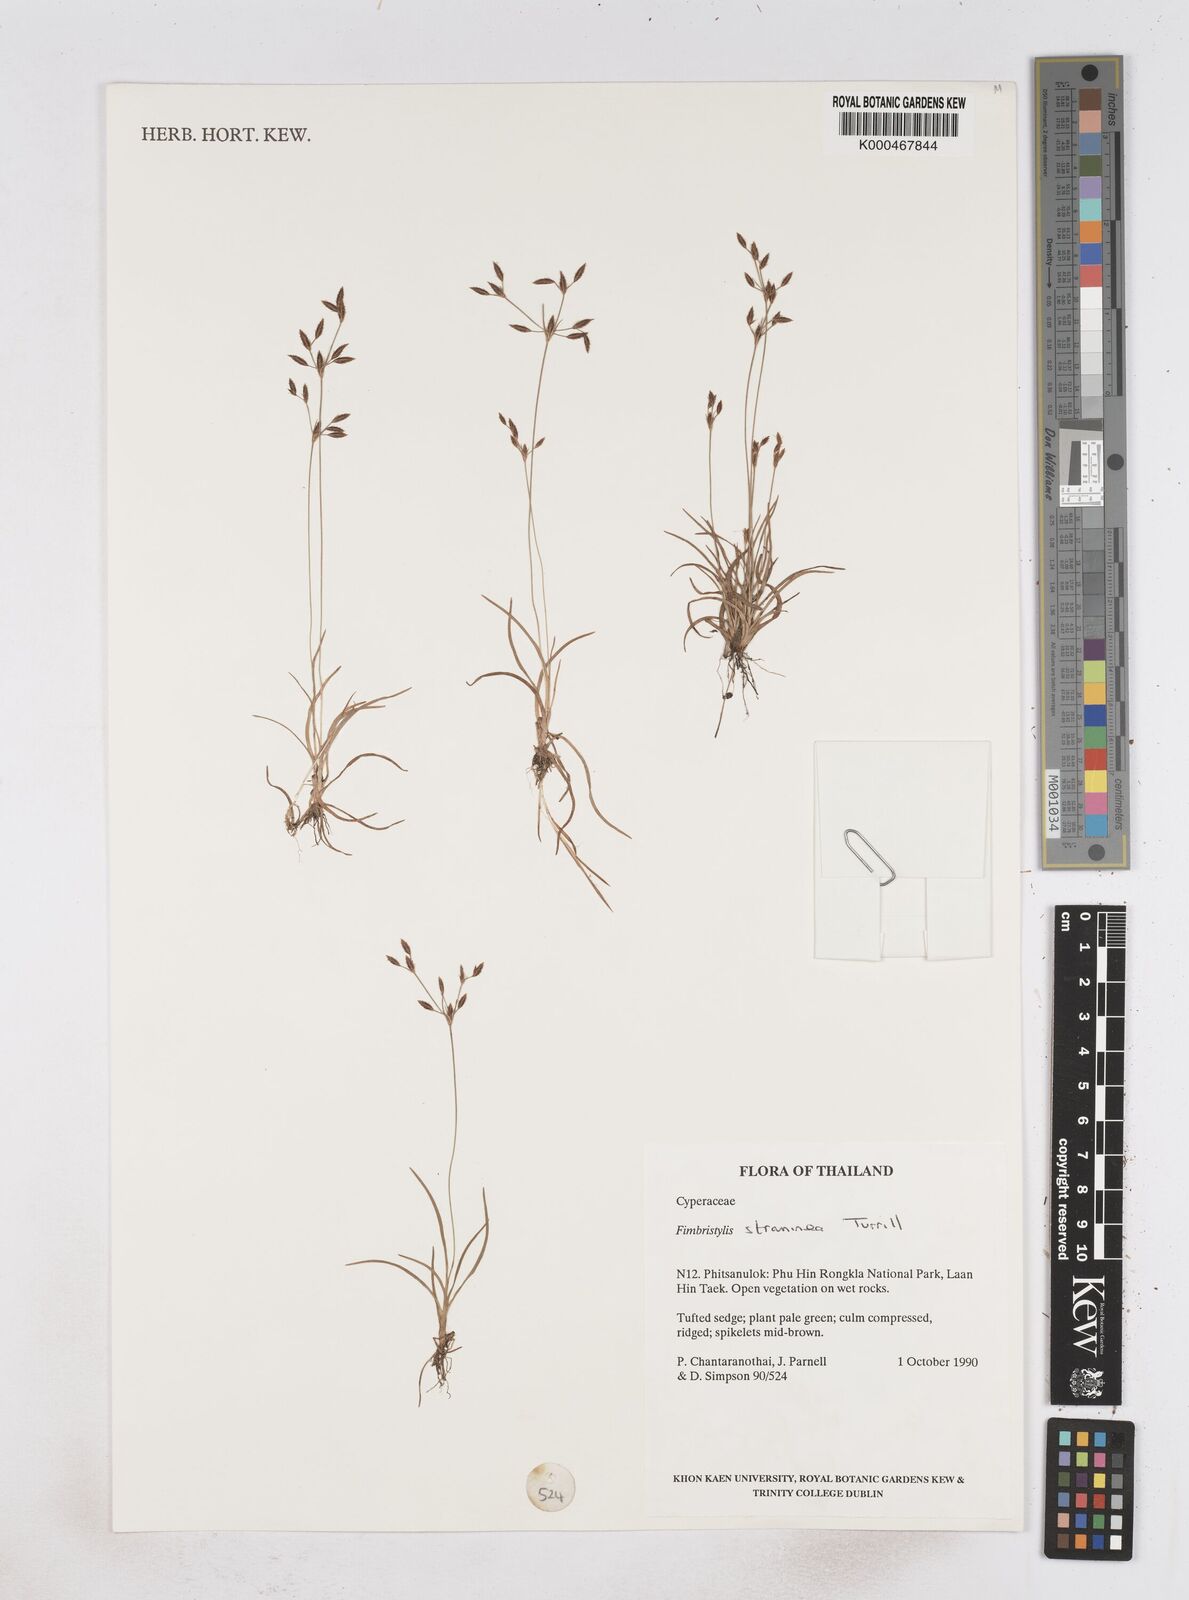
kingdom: Plantae
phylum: Tracheophyta
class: Liliopsida
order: Poales
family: Cyperaceae
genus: Fimbristylis
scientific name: Fimbristylis straminea
